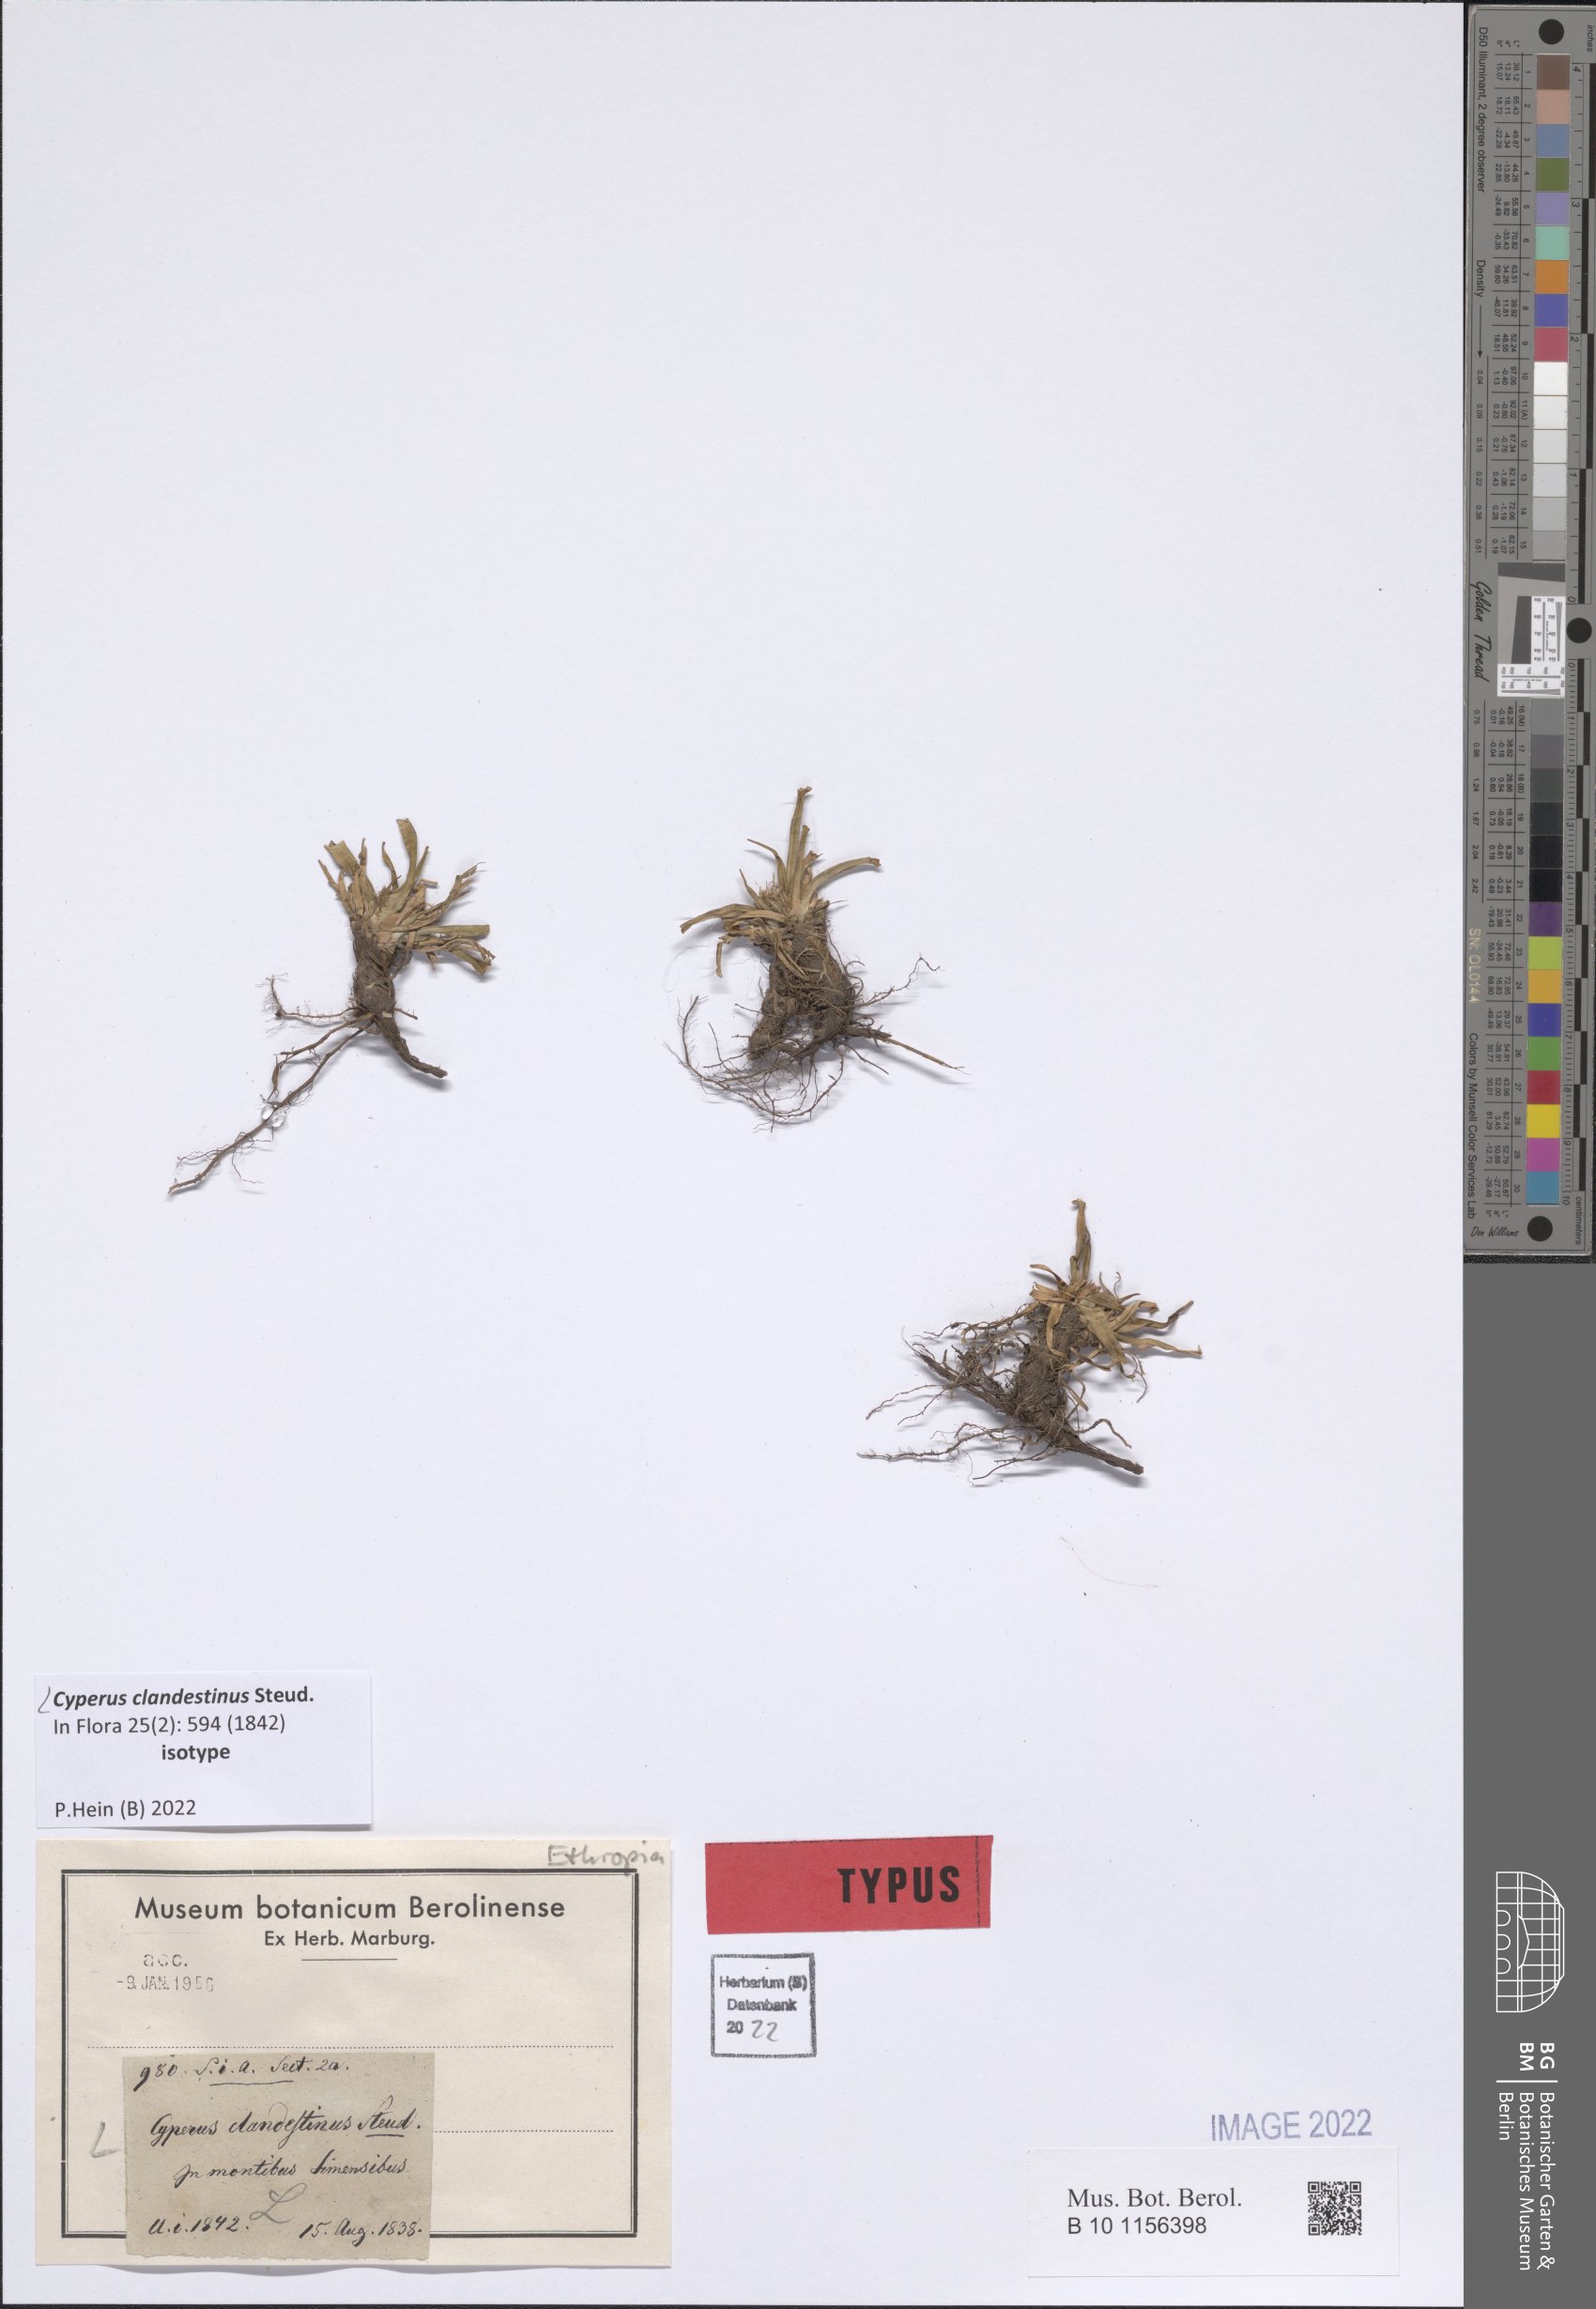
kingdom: Plantae
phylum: Tracheophyta
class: Liliopsida
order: Poales
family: Cyperaceae
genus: Cyperus
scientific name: Cyperus clandestinus
